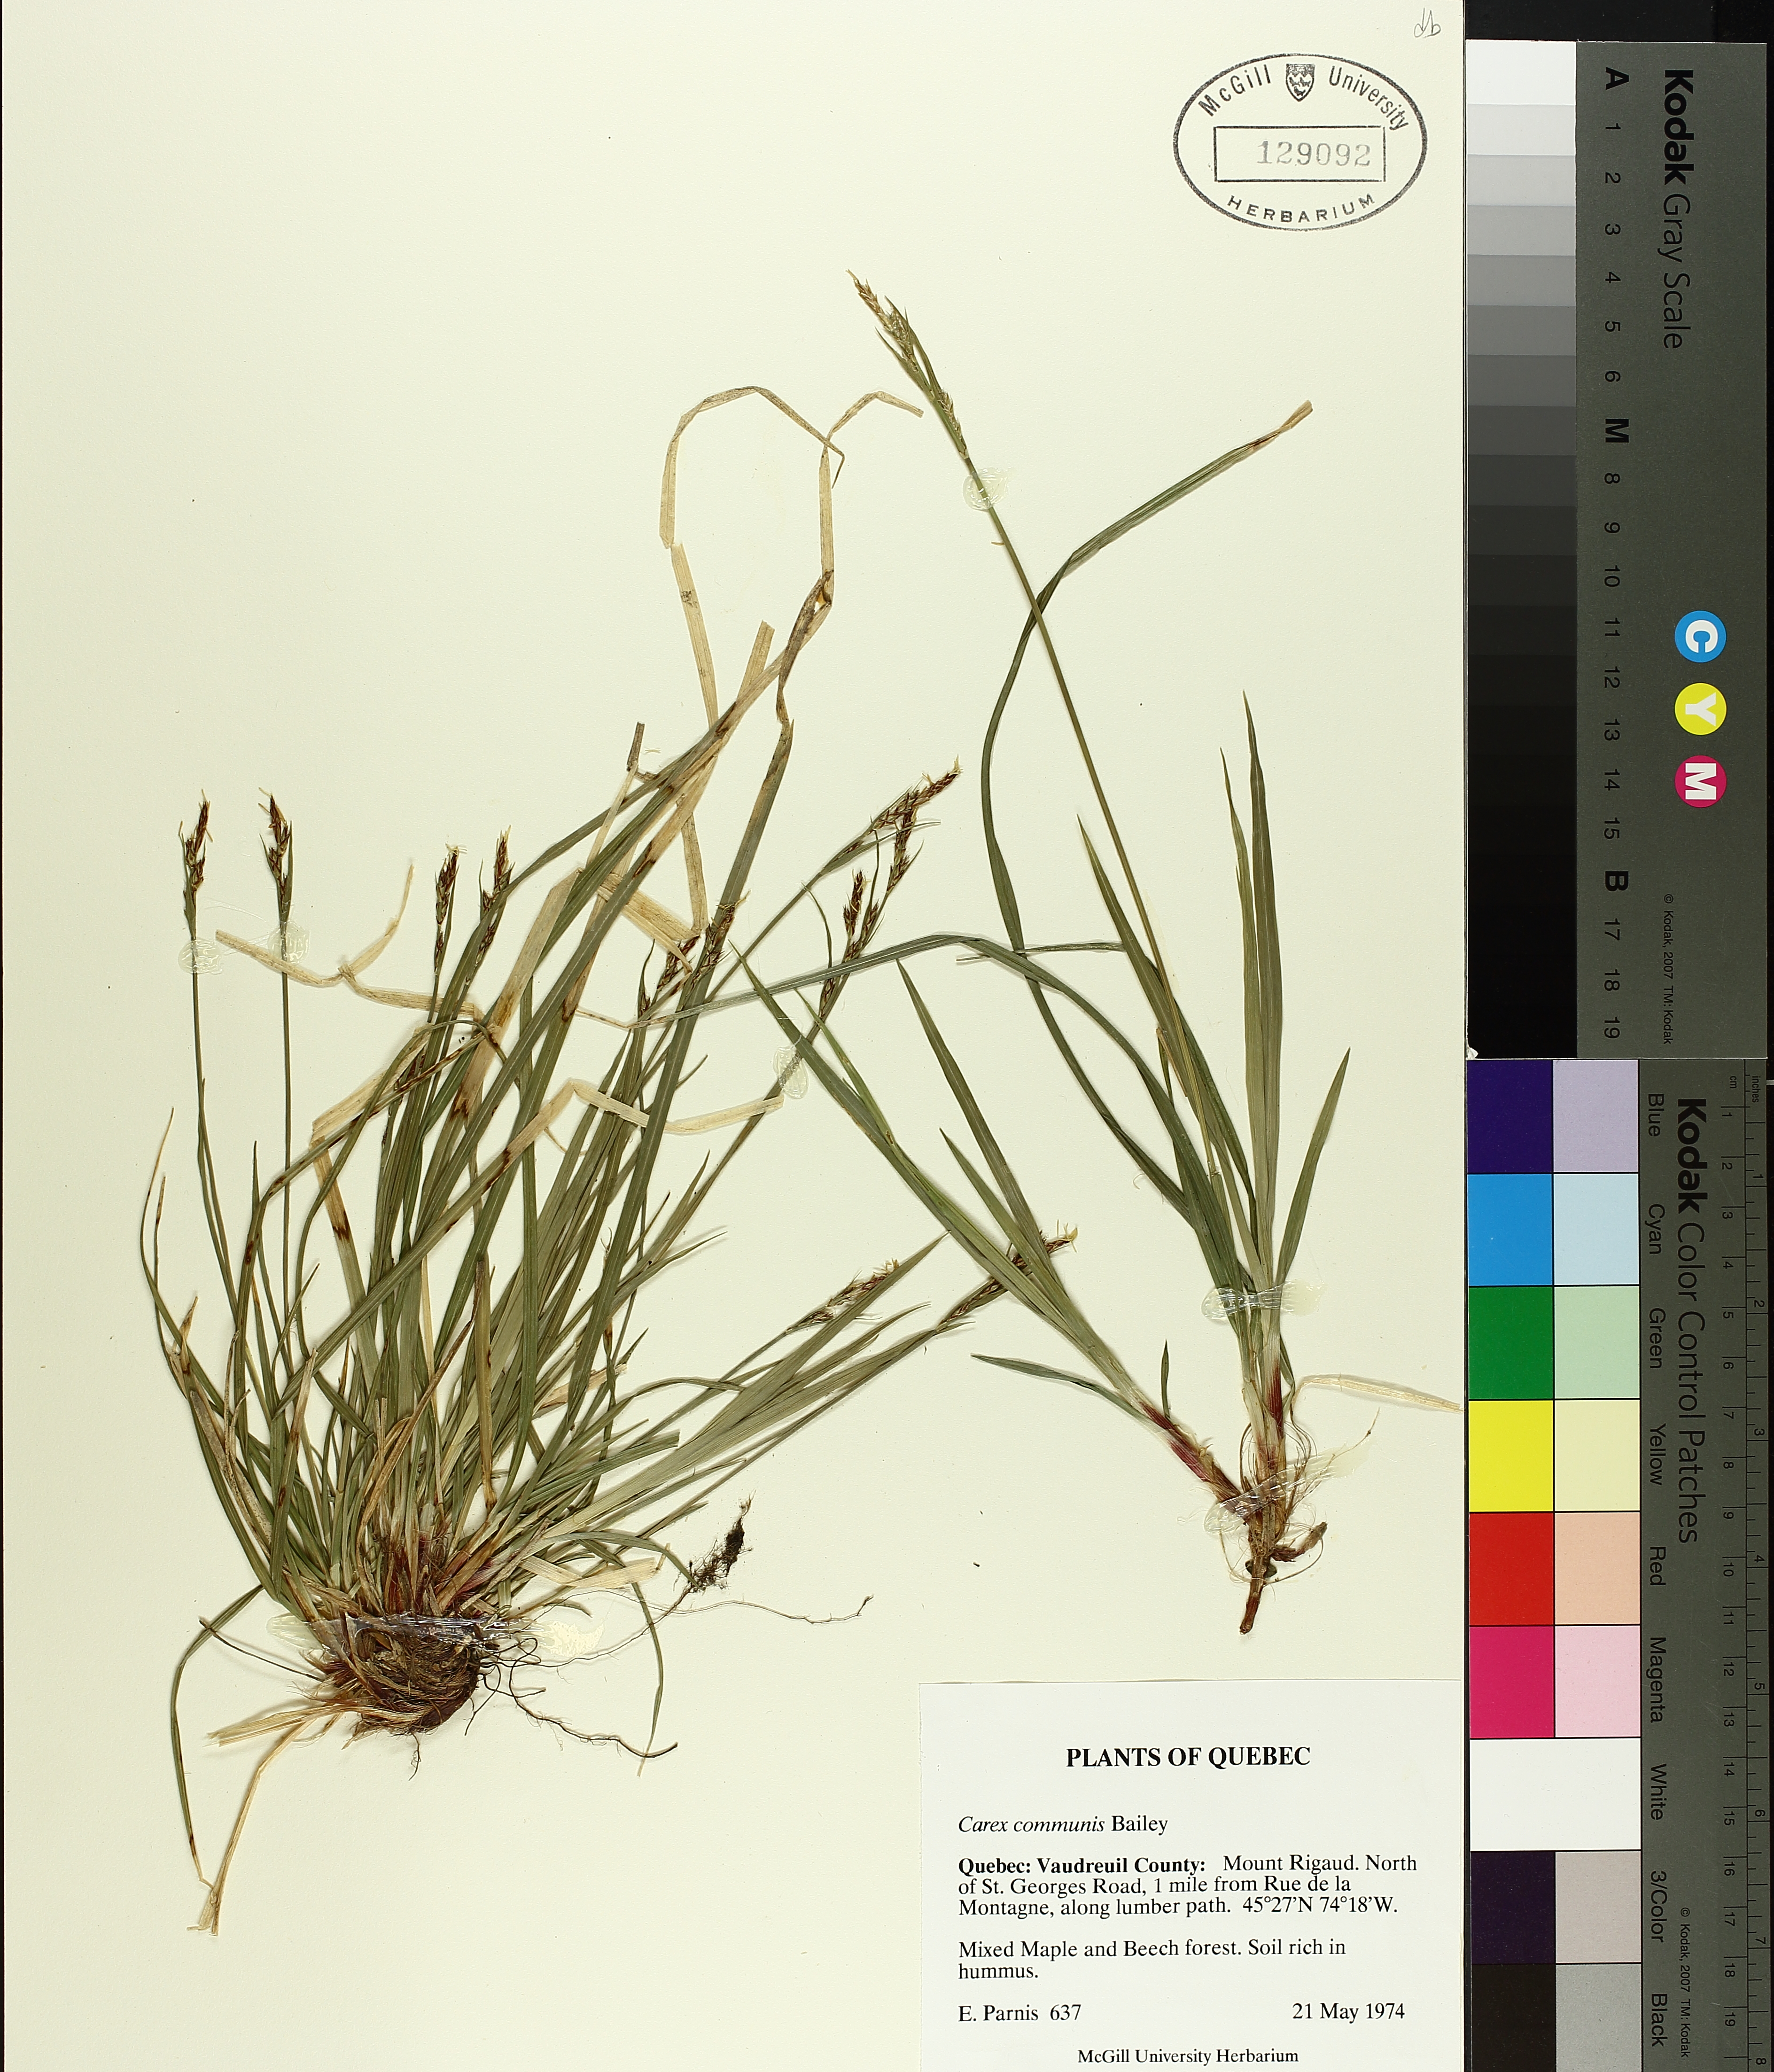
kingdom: Plantae
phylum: Tracheophyta
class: Liliopsida
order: Poales
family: Cyperaceae
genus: Carex
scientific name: Carex communis
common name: Colonial oak sedge
